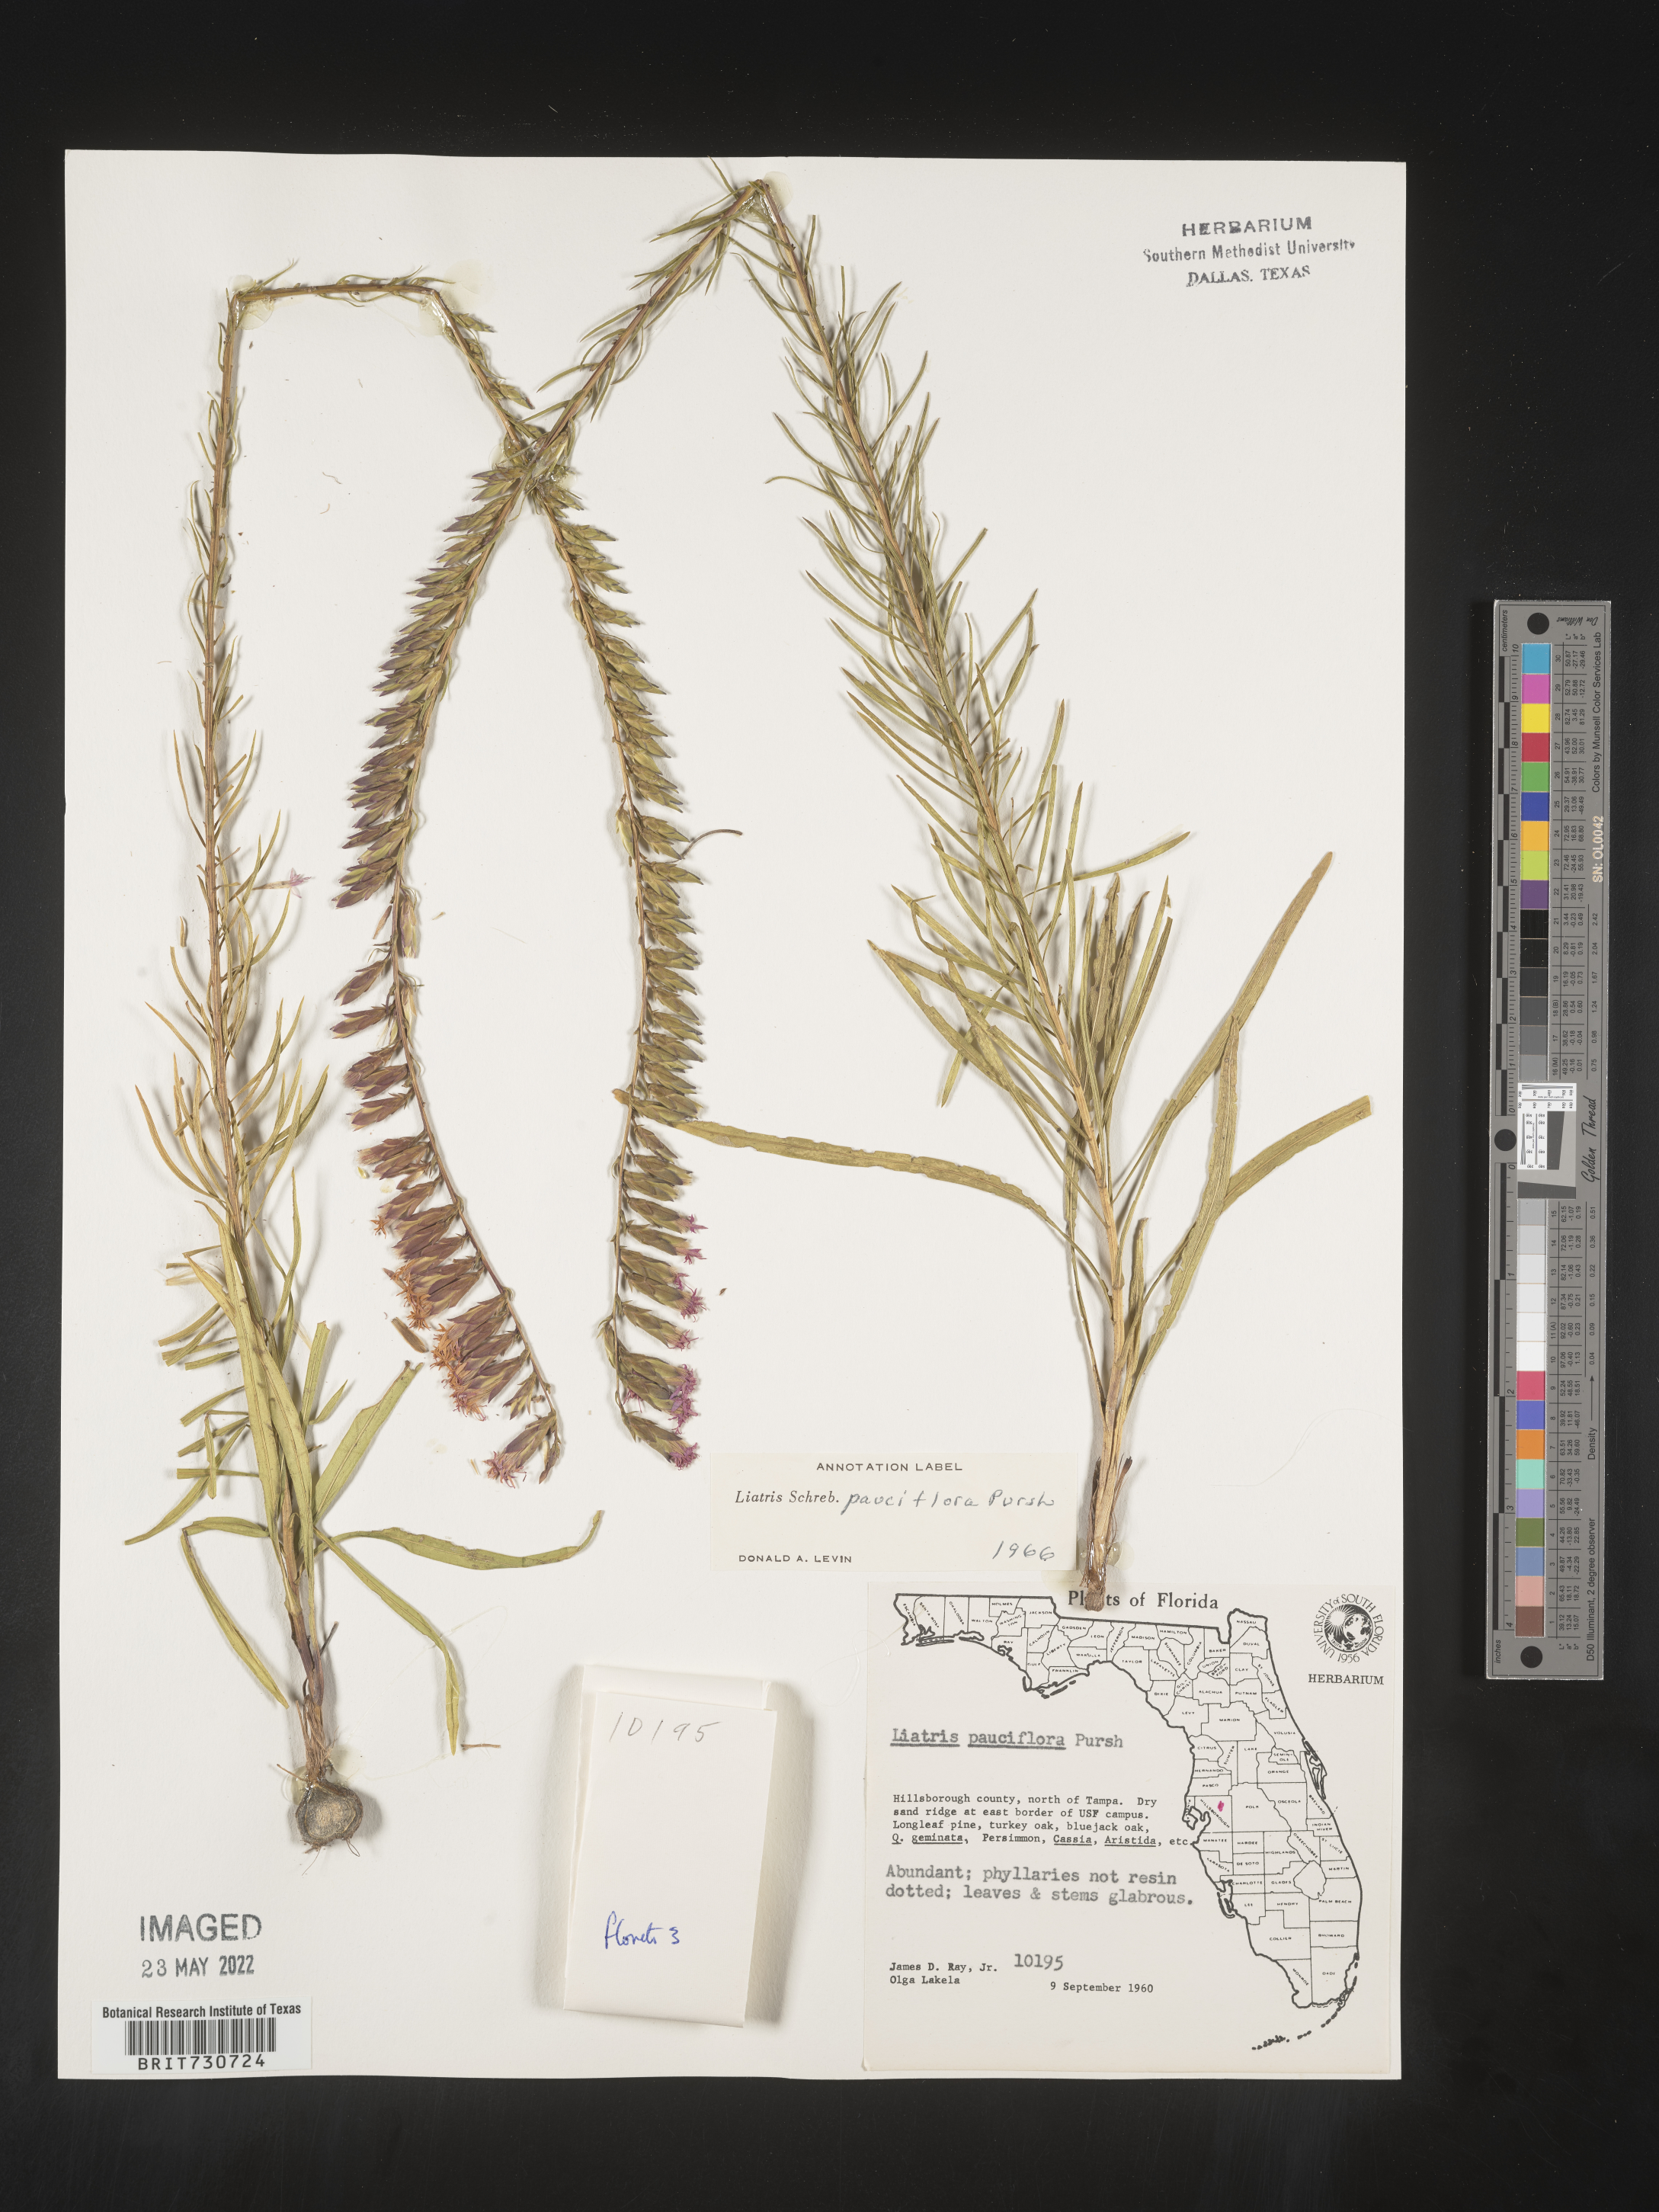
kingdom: Plantae
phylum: Tracheophyta
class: Magnoliopsida
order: Asterales
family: Asteraceae
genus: Liatris
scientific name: Liatris pauciflora
